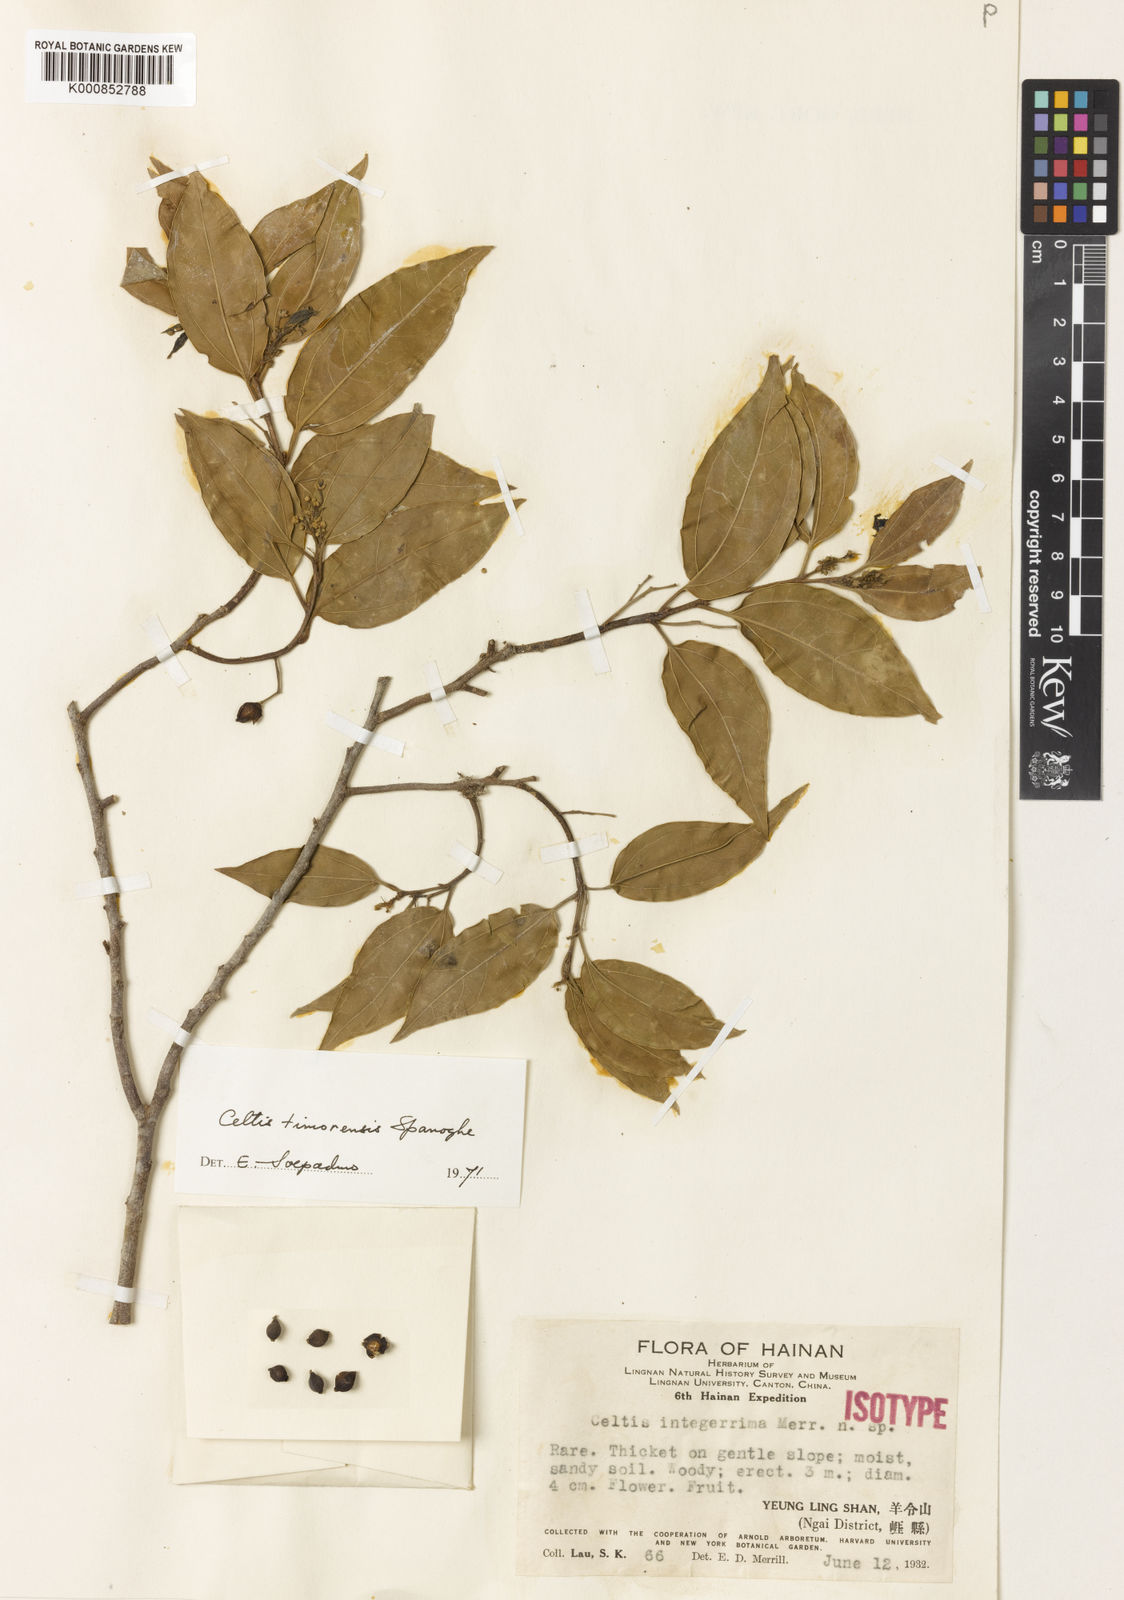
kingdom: Plantae
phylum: Tracheophyta
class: Magnoliopsida
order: Rosales
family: Cannabaceae
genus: Celtis
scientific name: Celtis timorensis
